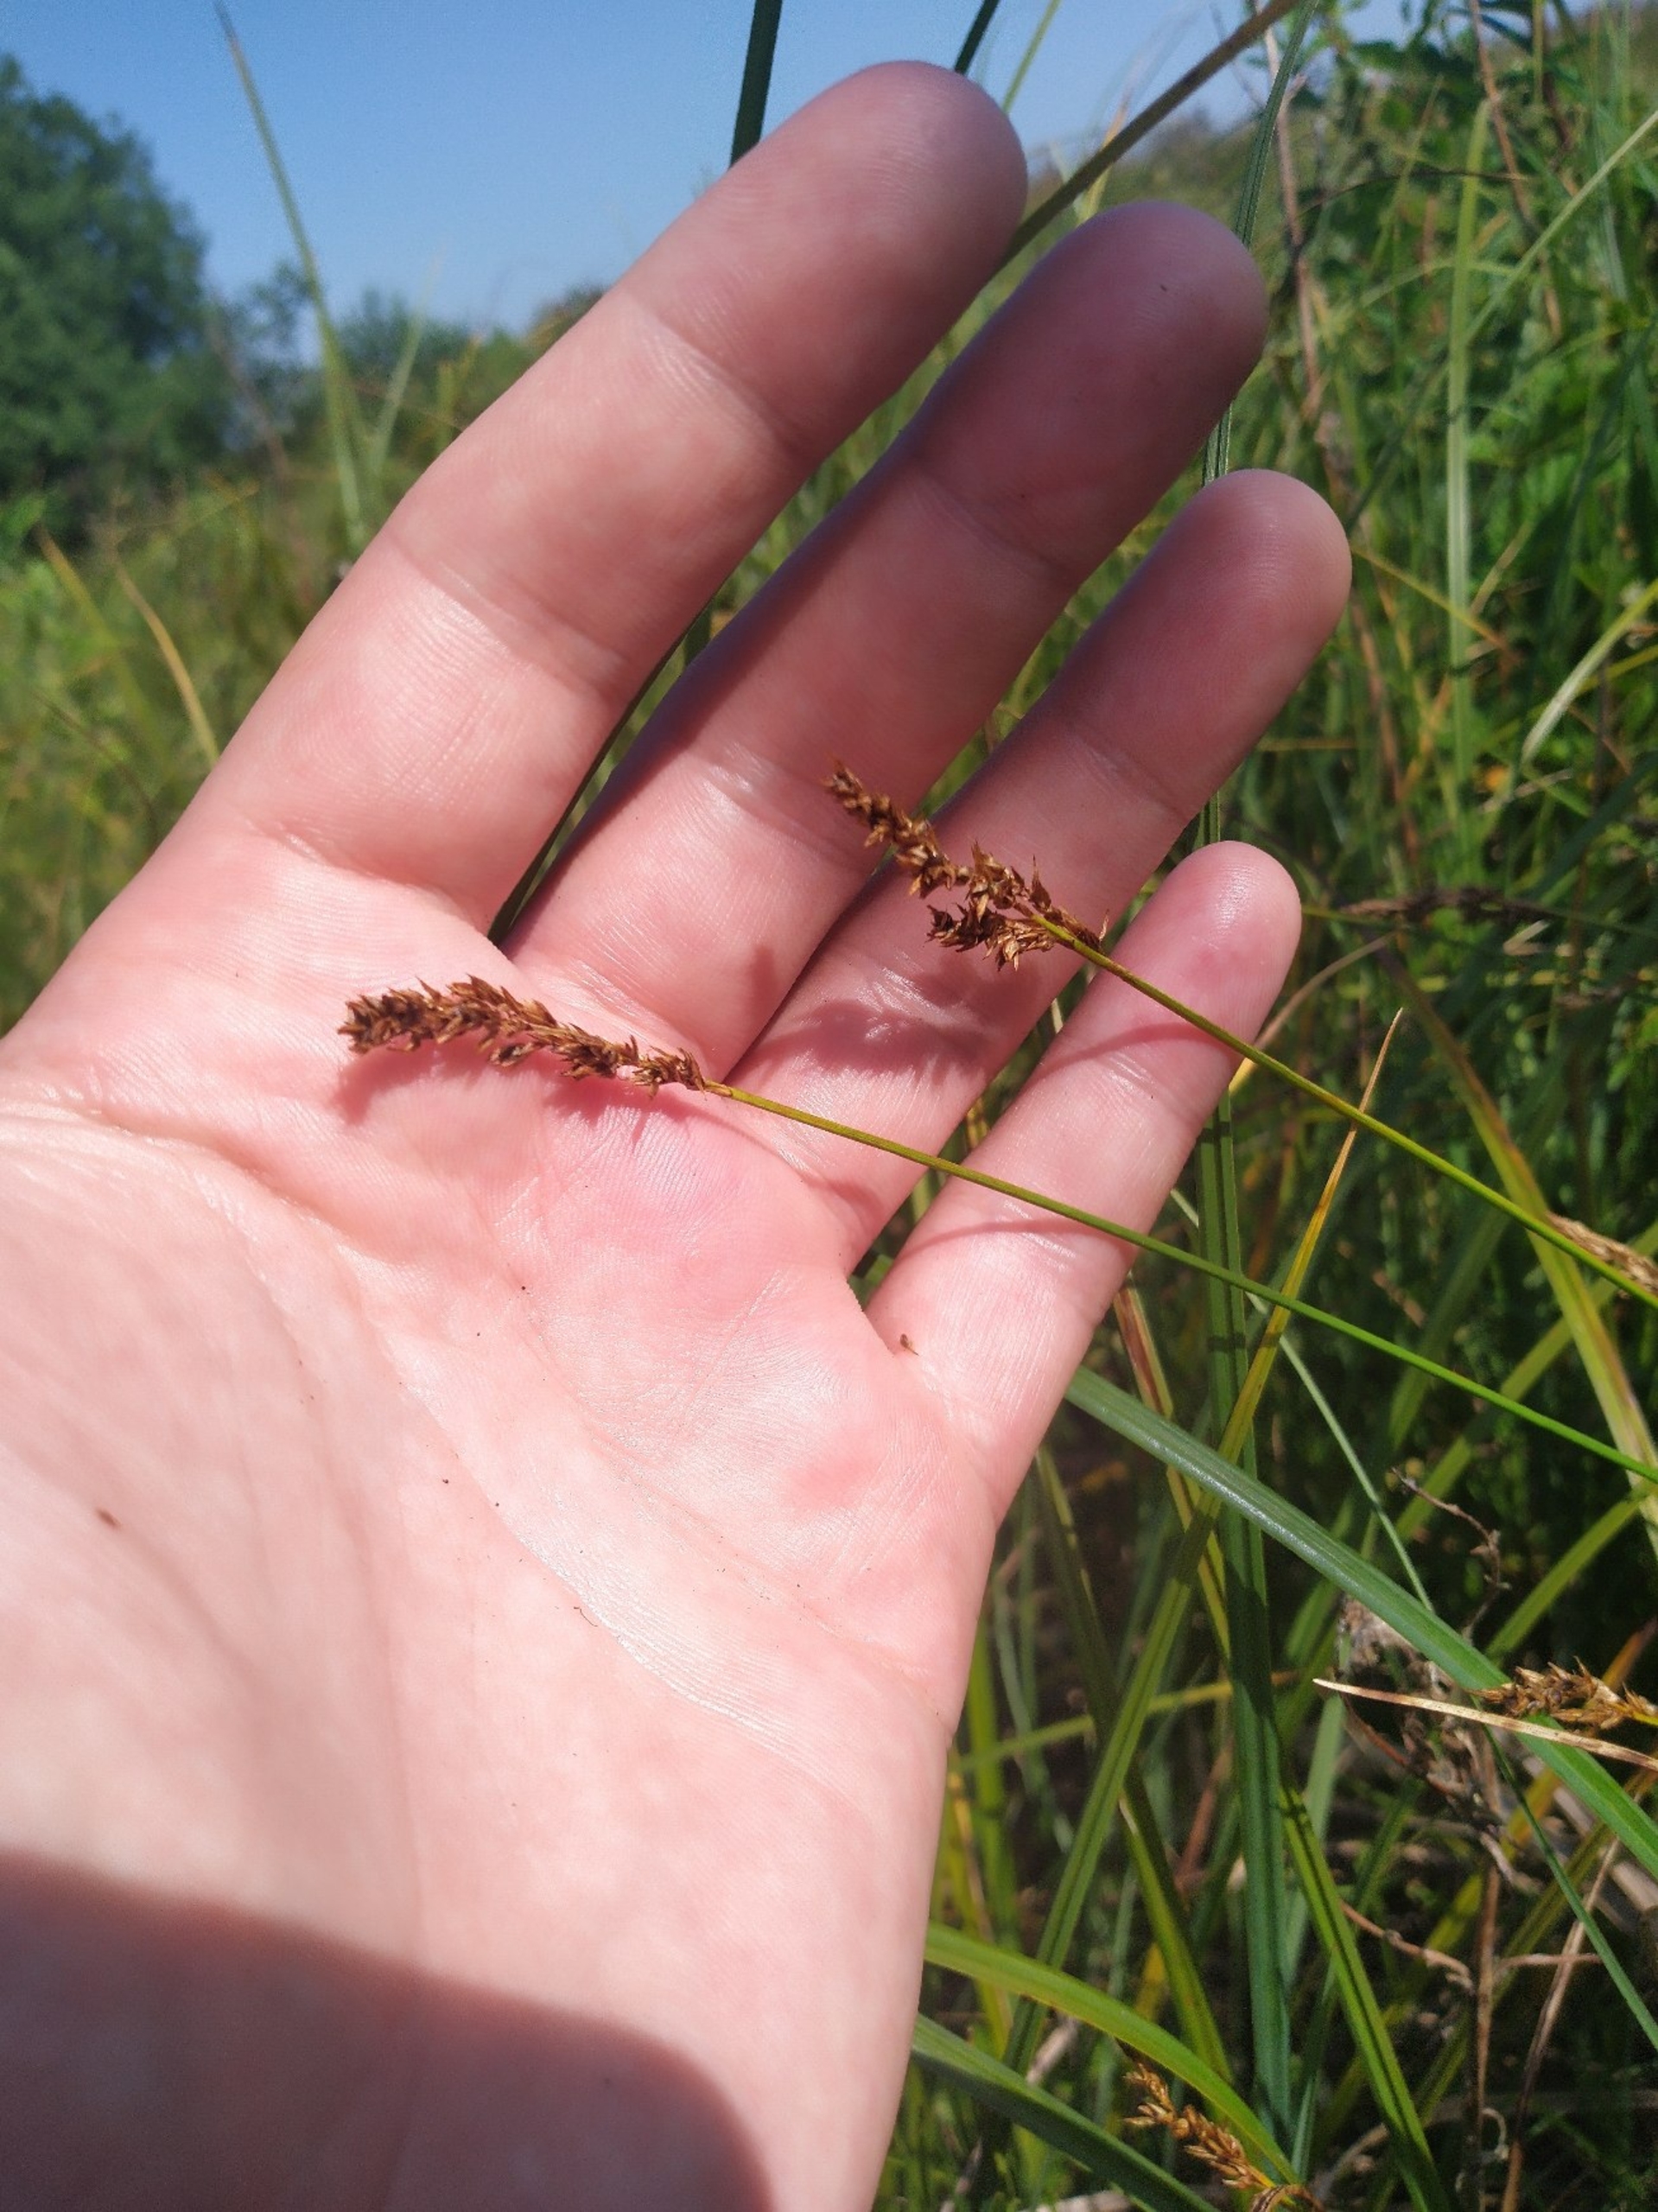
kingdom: Plantae
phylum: Tracheophyta
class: Liliopsida
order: Poales
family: Cyperaceae
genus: Carex
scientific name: Carex appropinquata
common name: Langakset star
